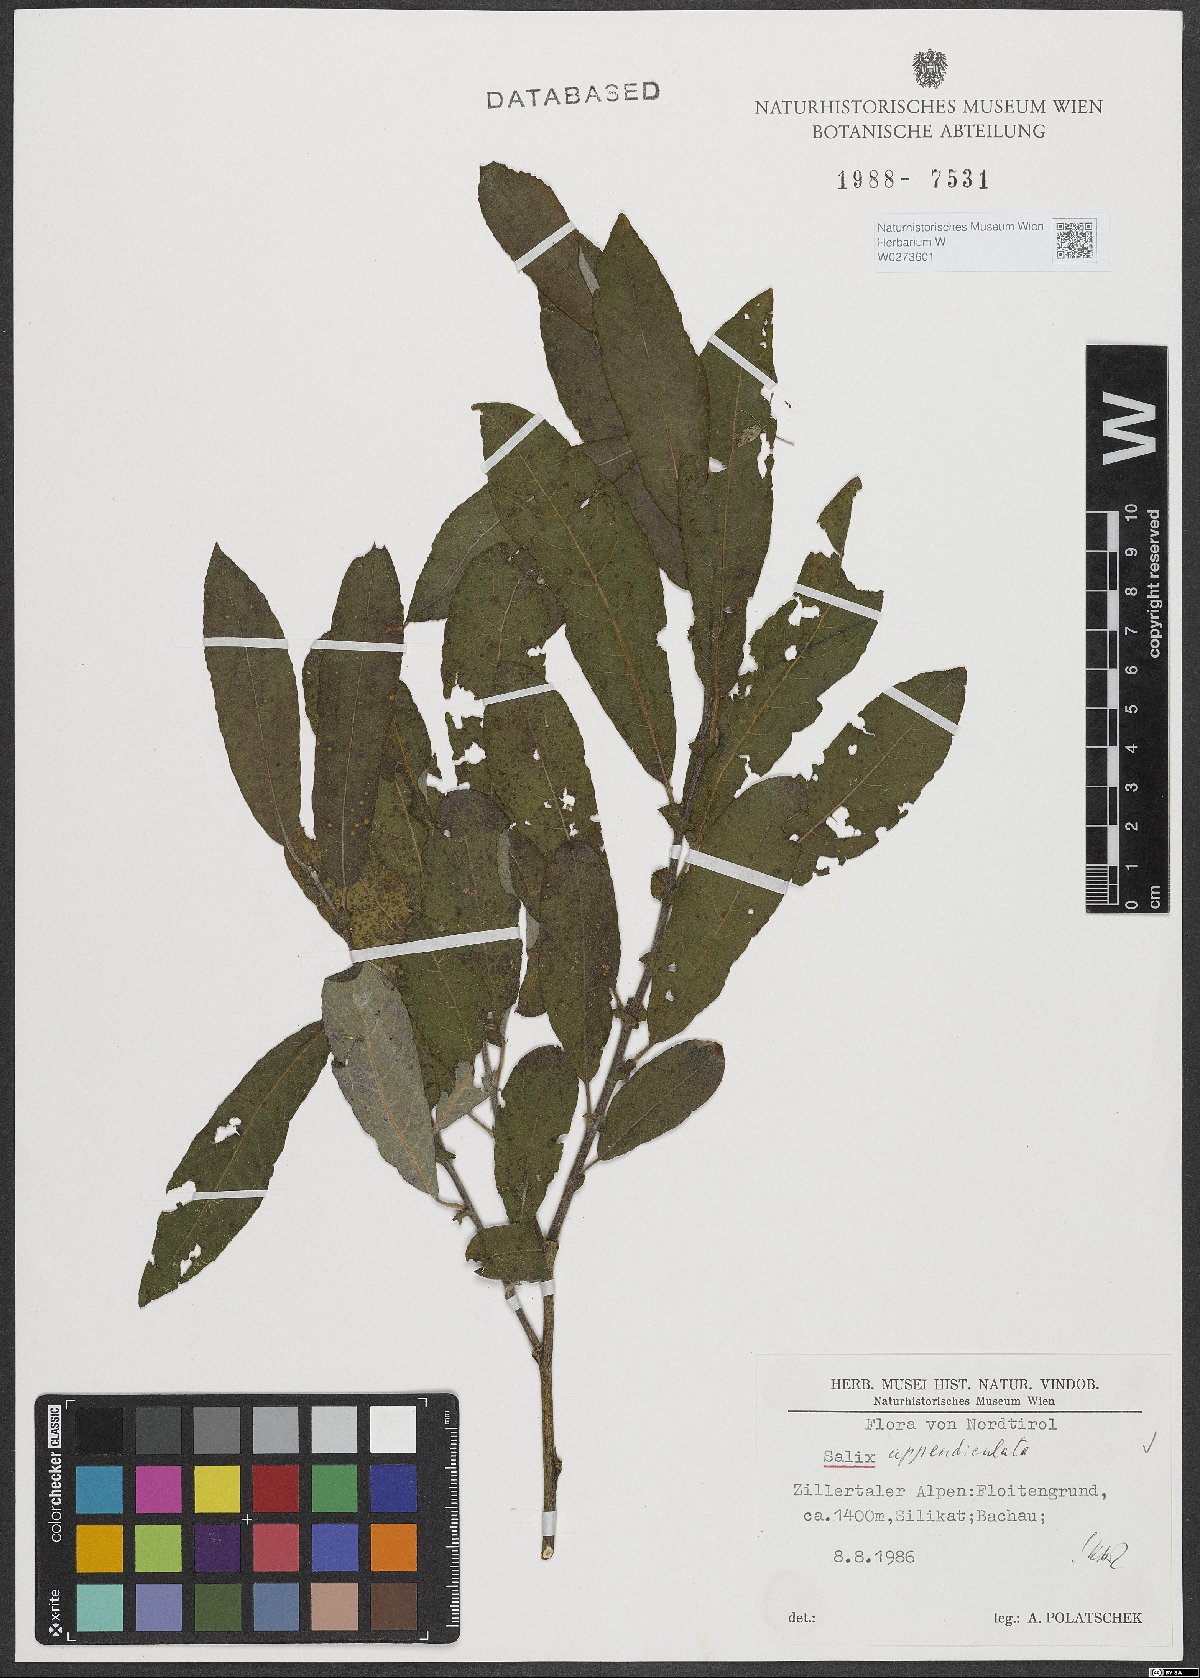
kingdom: Plantae
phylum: Tracheophyta
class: Magnoliopsida
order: Malpighiales
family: Salicaceae
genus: Salix
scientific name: Salix appendiculata
